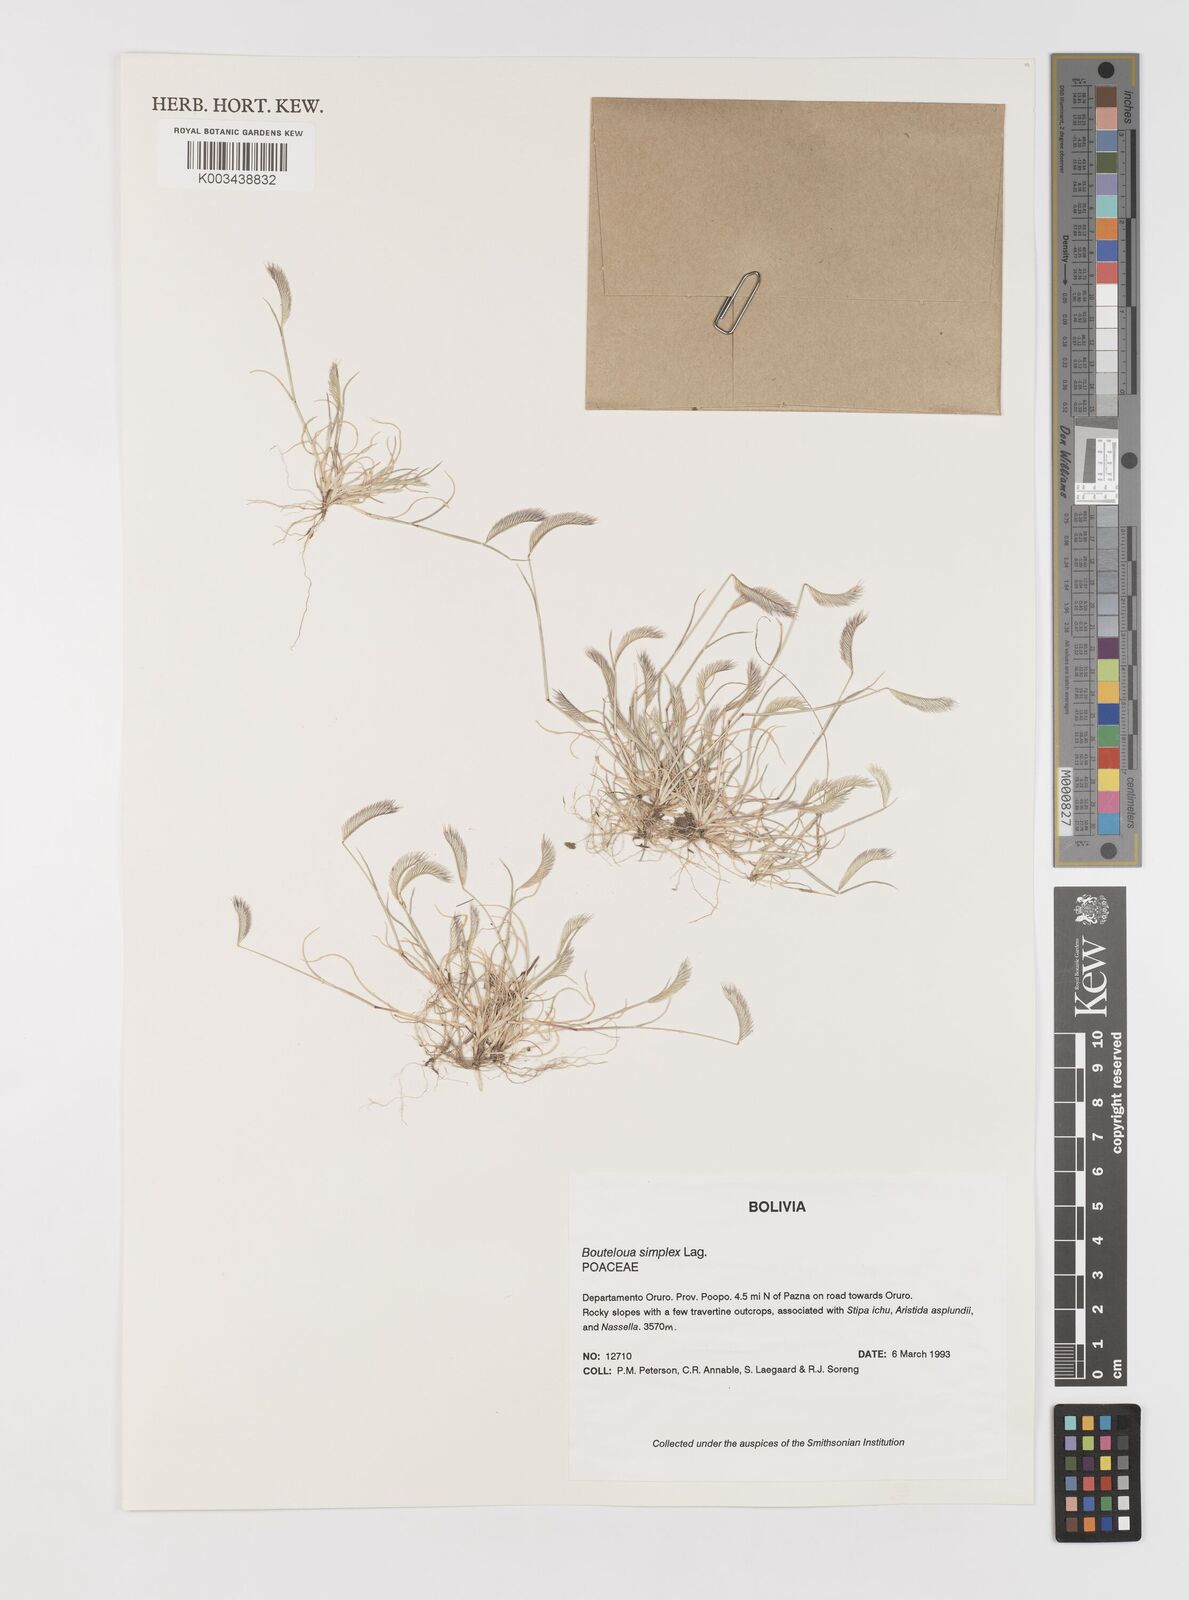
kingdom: Plantae
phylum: Tracheophyta
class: Liliopsida
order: Poales
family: Poaceae
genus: Bouteloua
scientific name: Bouteloua simplex
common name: Mat grama
